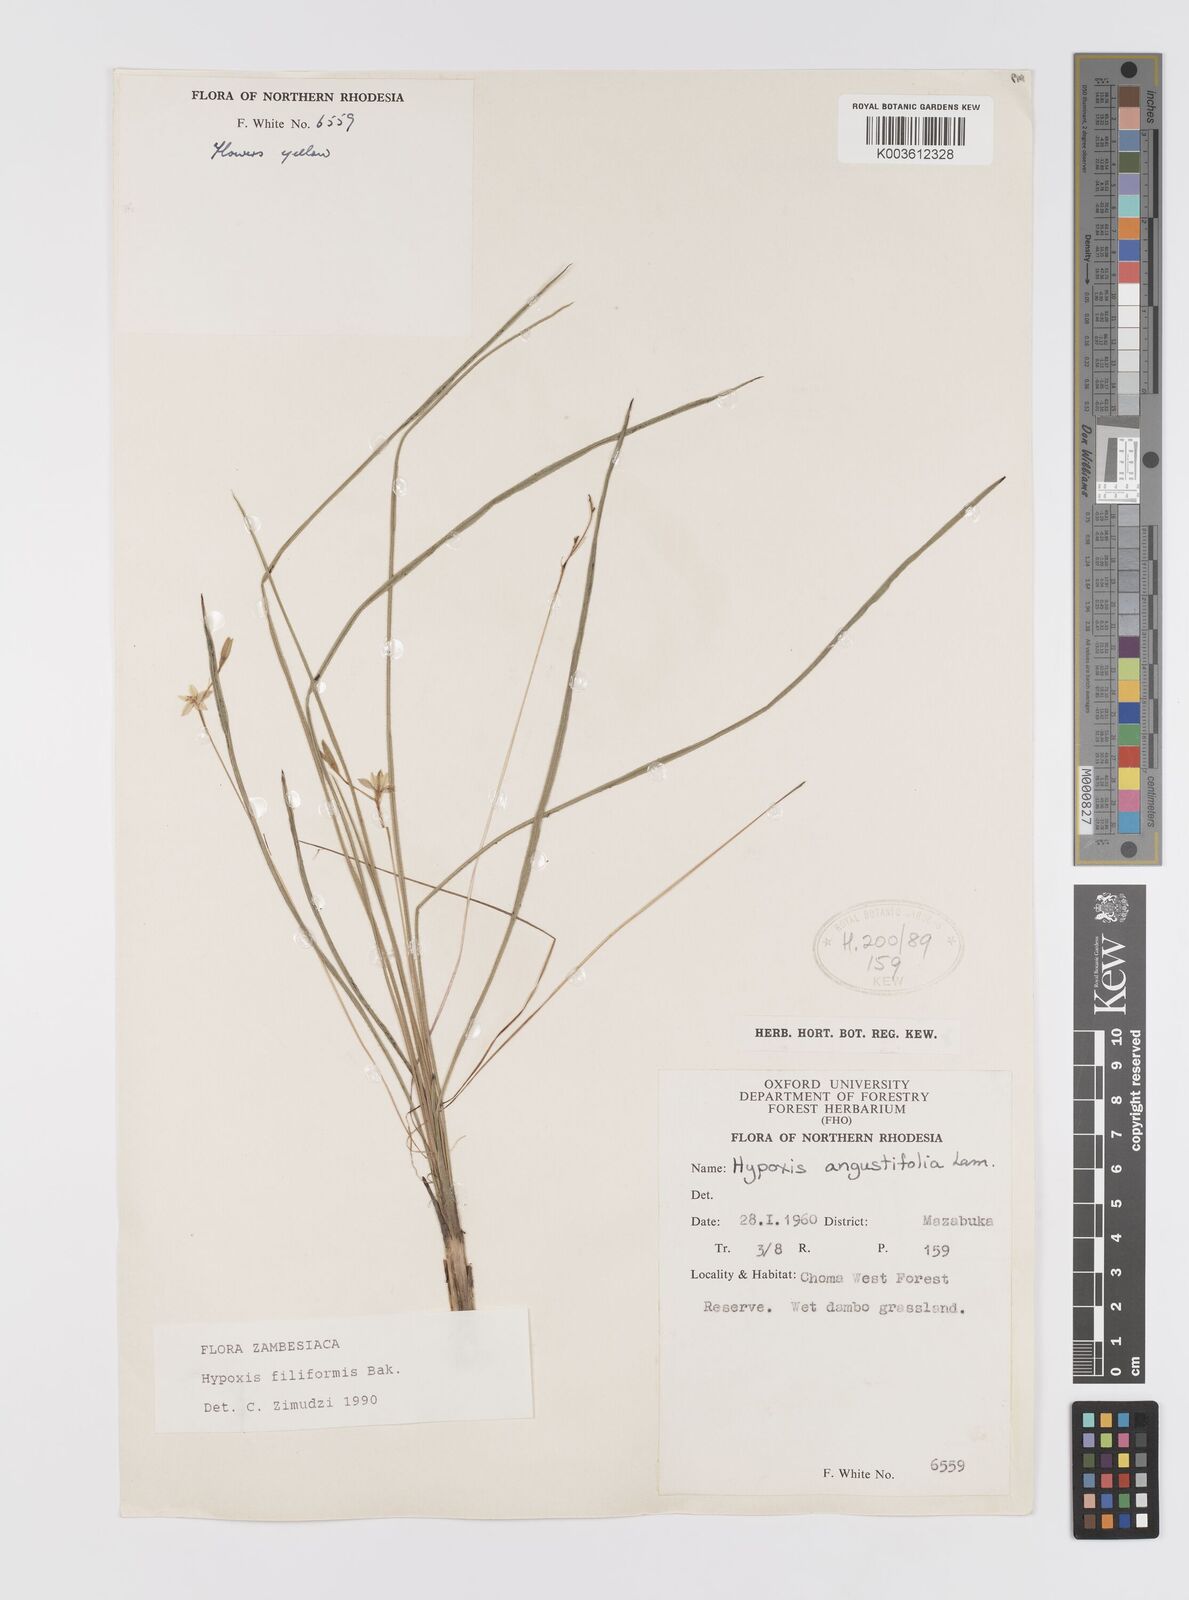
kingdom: Plantae
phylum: Tracheophyta
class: Liliopsida
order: Asparagales
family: Hypoxidaceae
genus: Hypoxis
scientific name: Hypoxis filiformis
